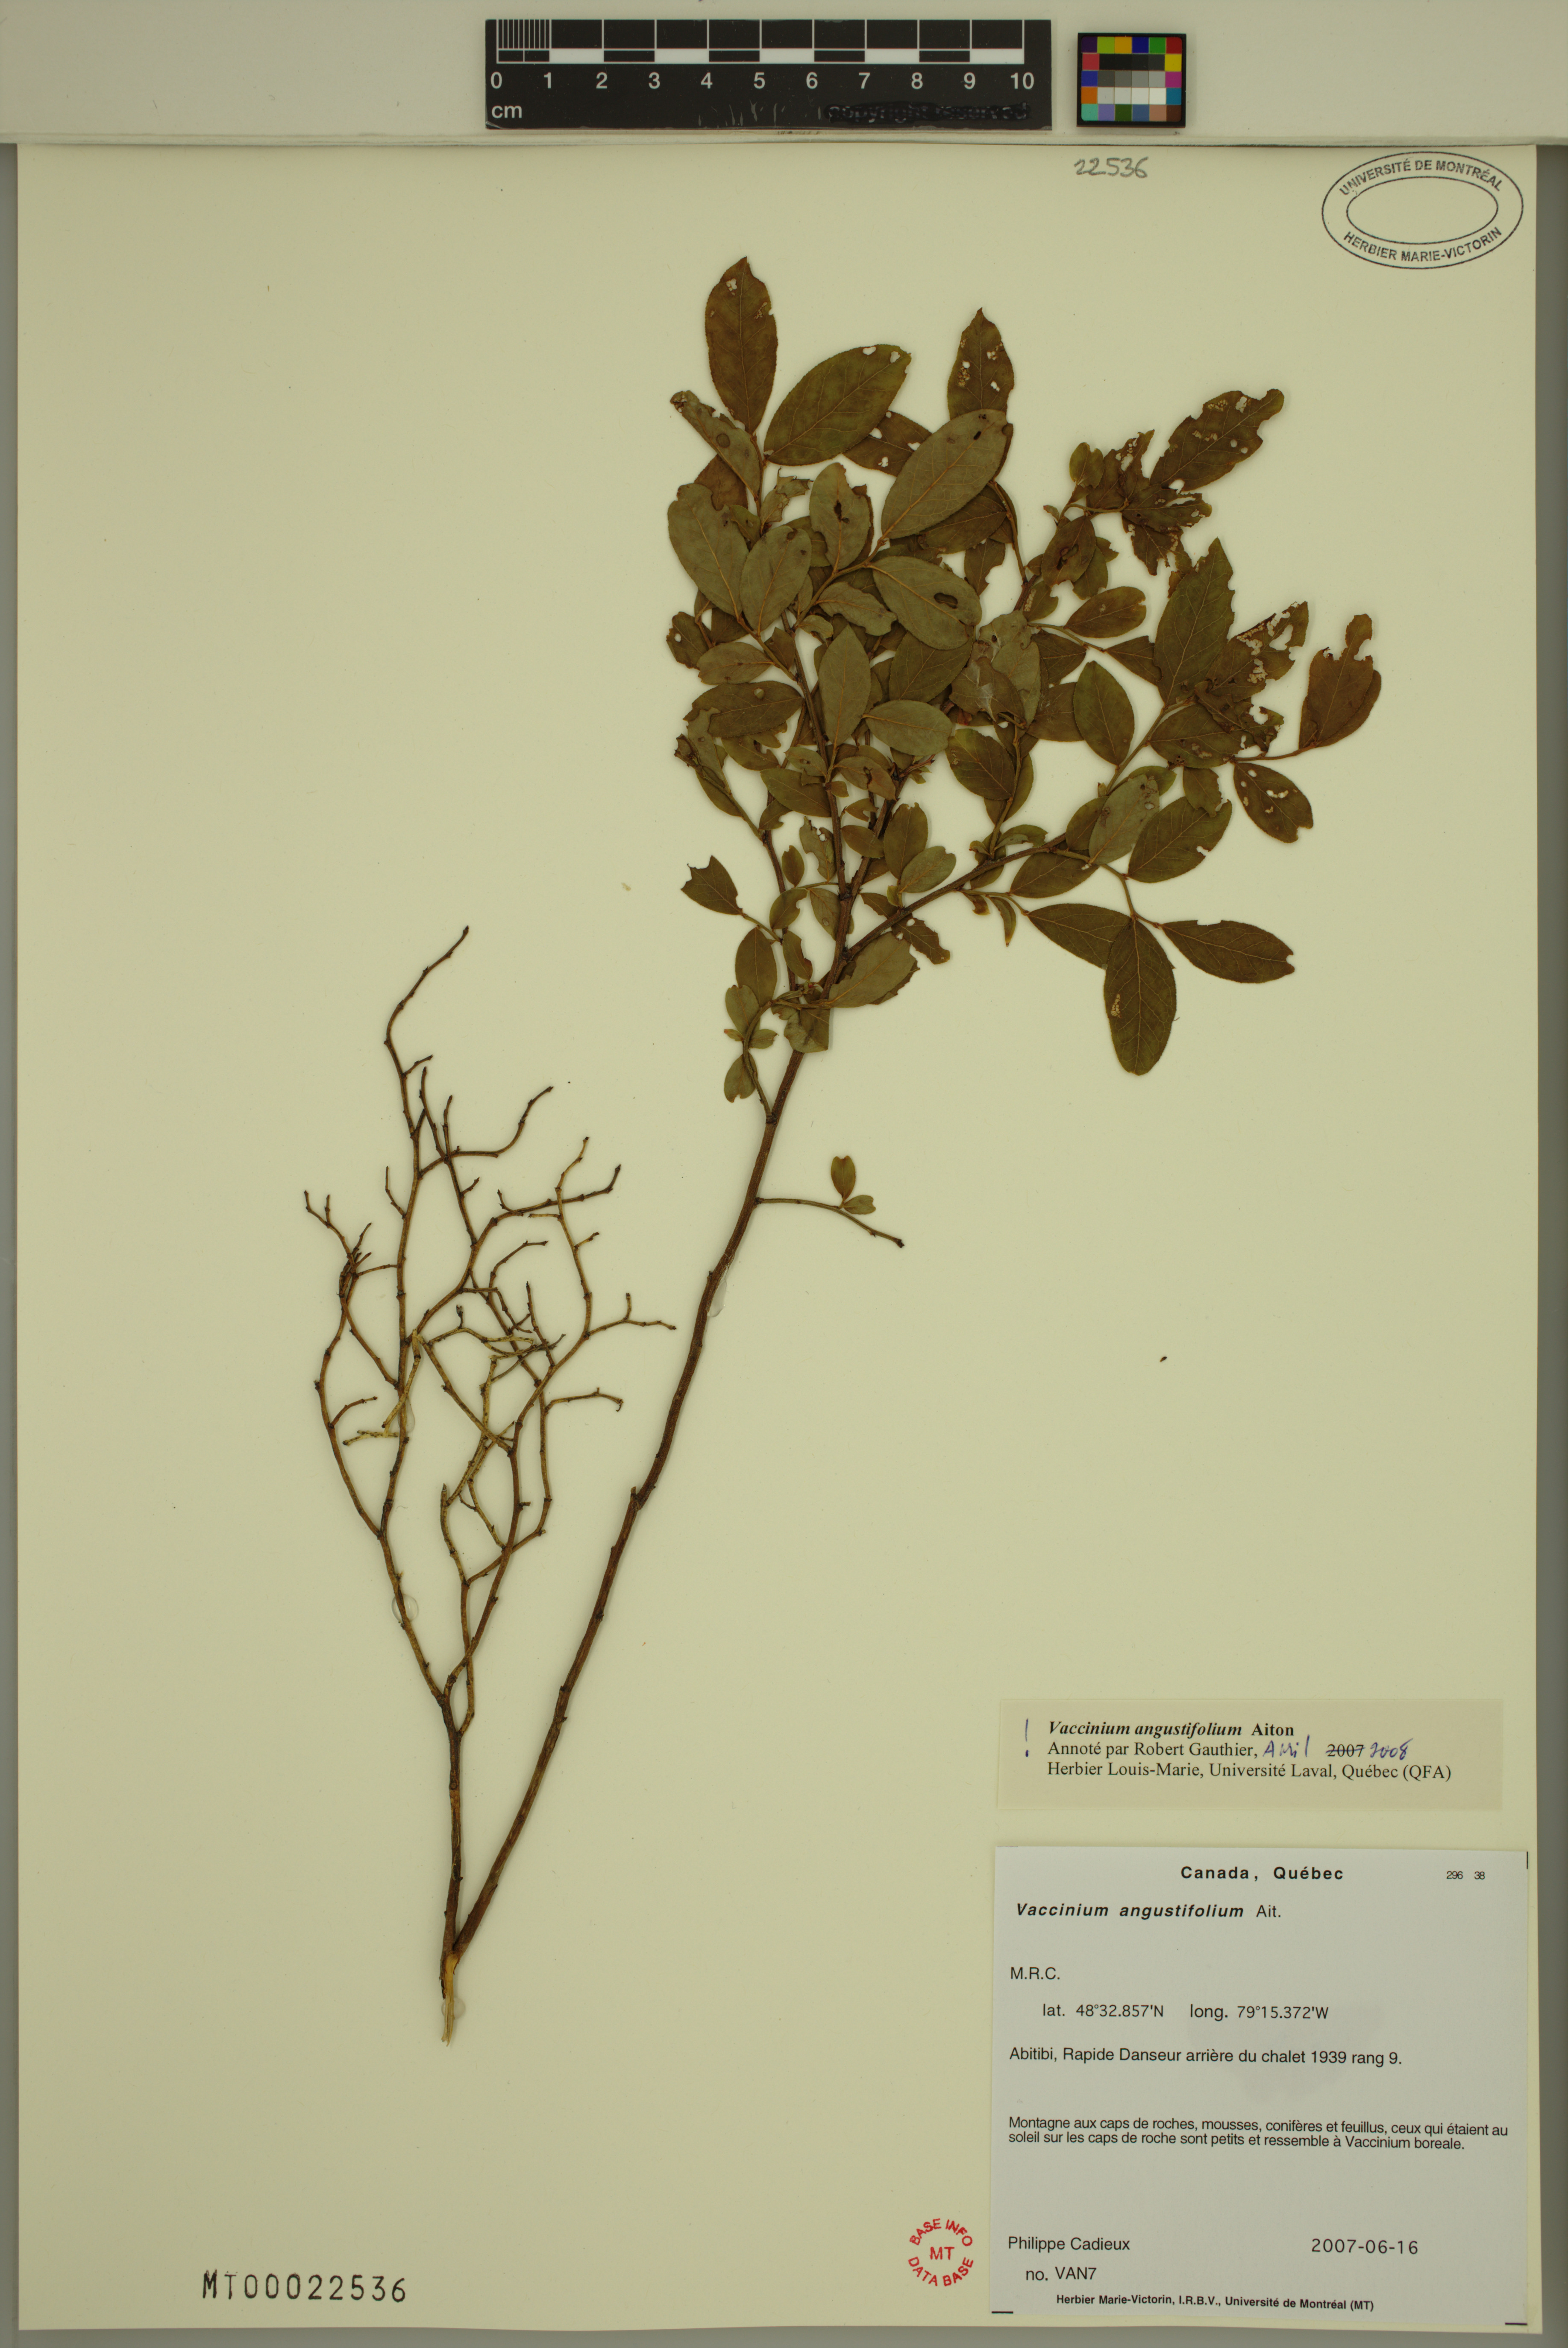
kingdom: Plantae
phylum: Tracheophyta
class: Magnoliopsida
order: Ericales
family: Ericaceae
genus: Vaccinium
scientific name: Vaccinium angustifolium
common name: Early lowbush blueberry
